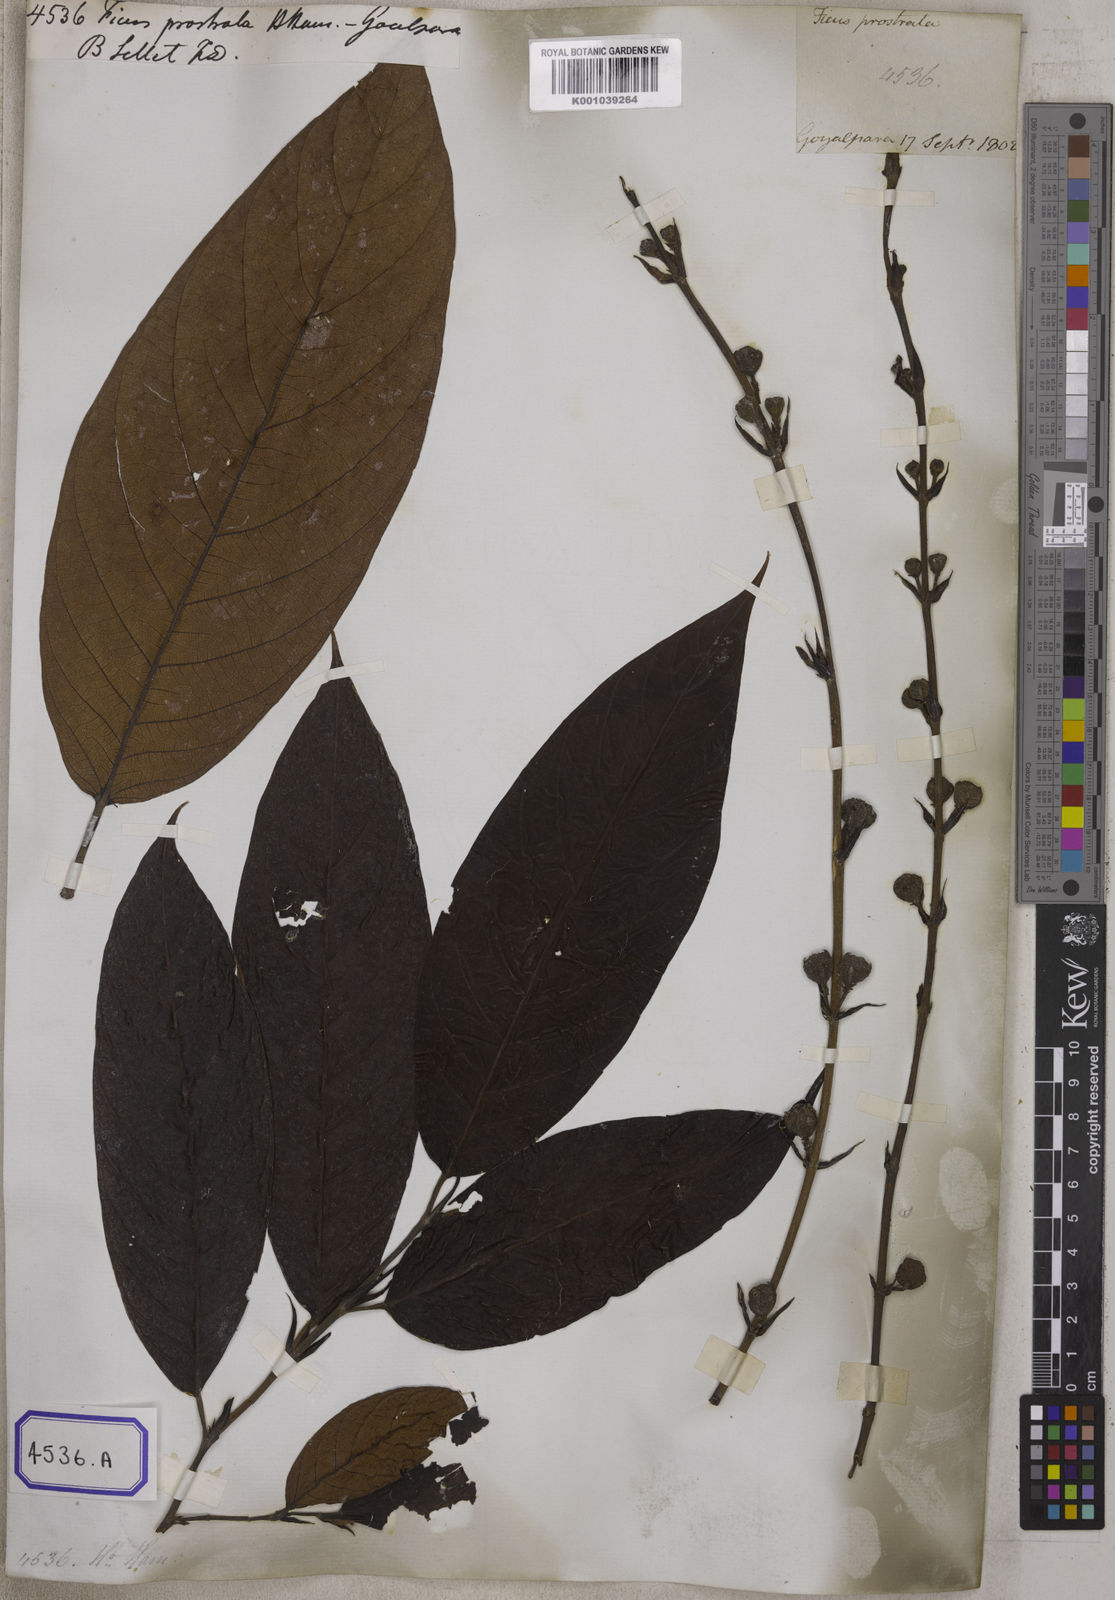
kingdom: Plantae
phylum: Tracheophyta
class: Magnoliopsida
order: Rosales
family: Moraceae
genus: Ficus
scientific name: Ficus
